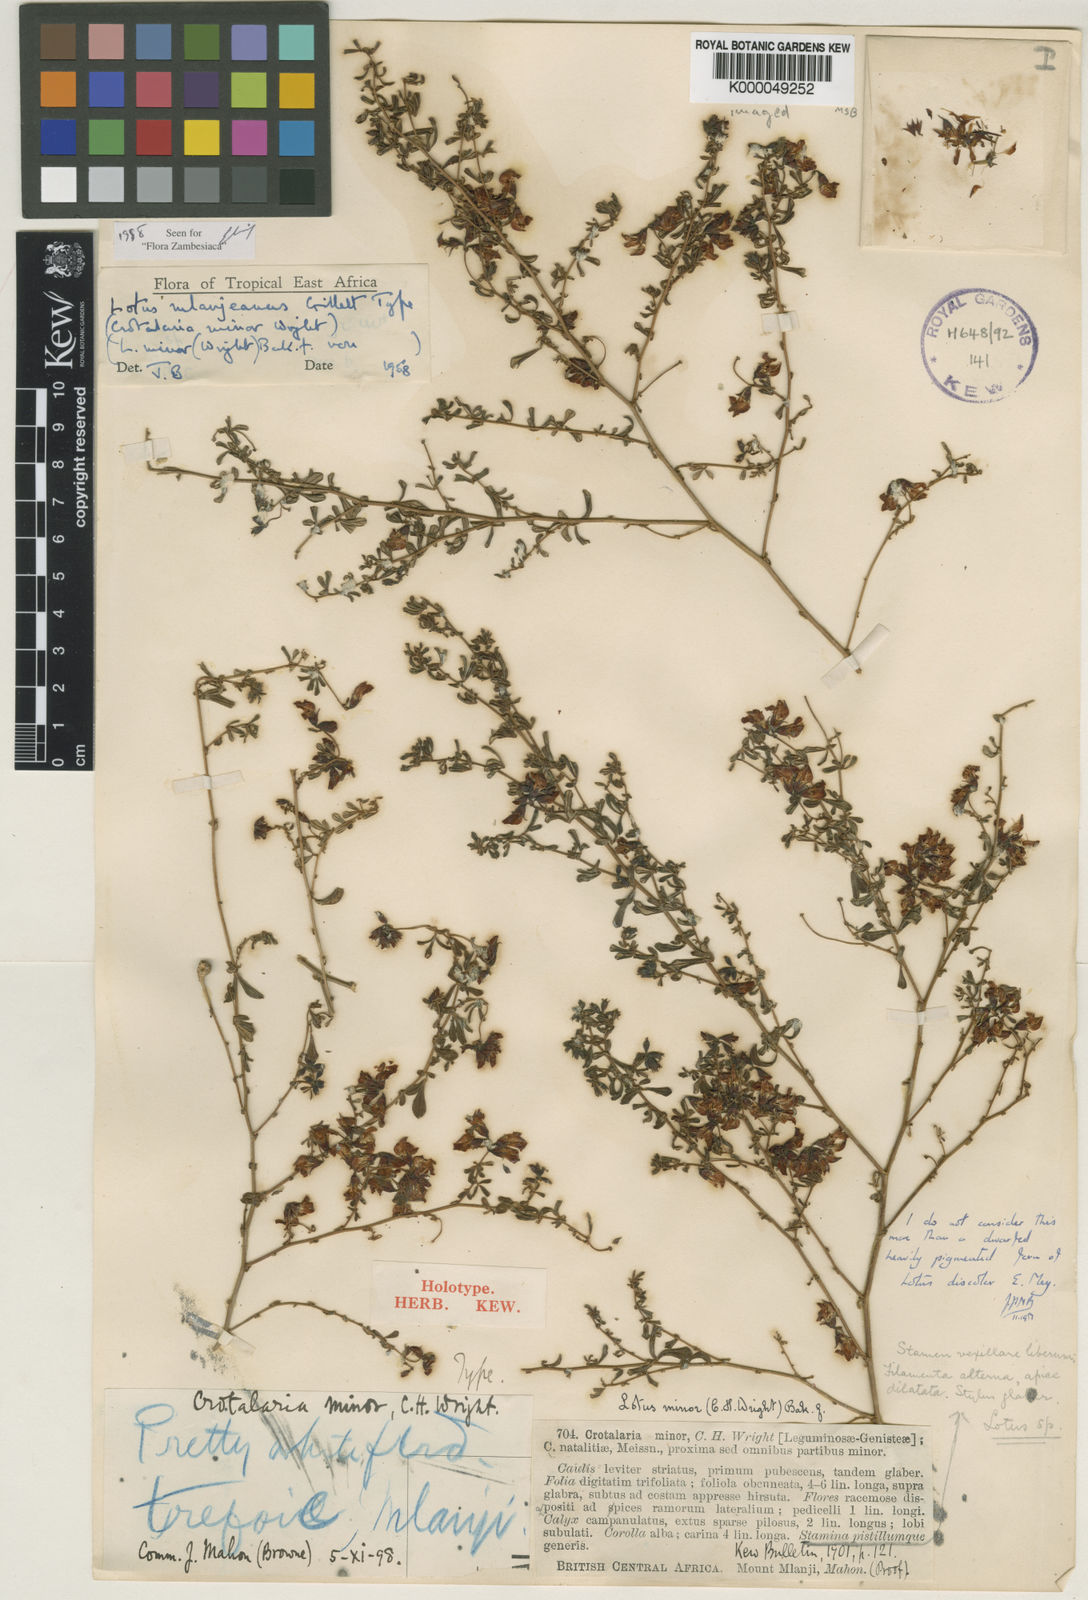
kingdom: Plantae
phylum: Tracheophyta
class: Magnoliopsida
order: Fabales
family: Fabaceae
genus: Lotus
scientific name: Lotus mlanjeanus
